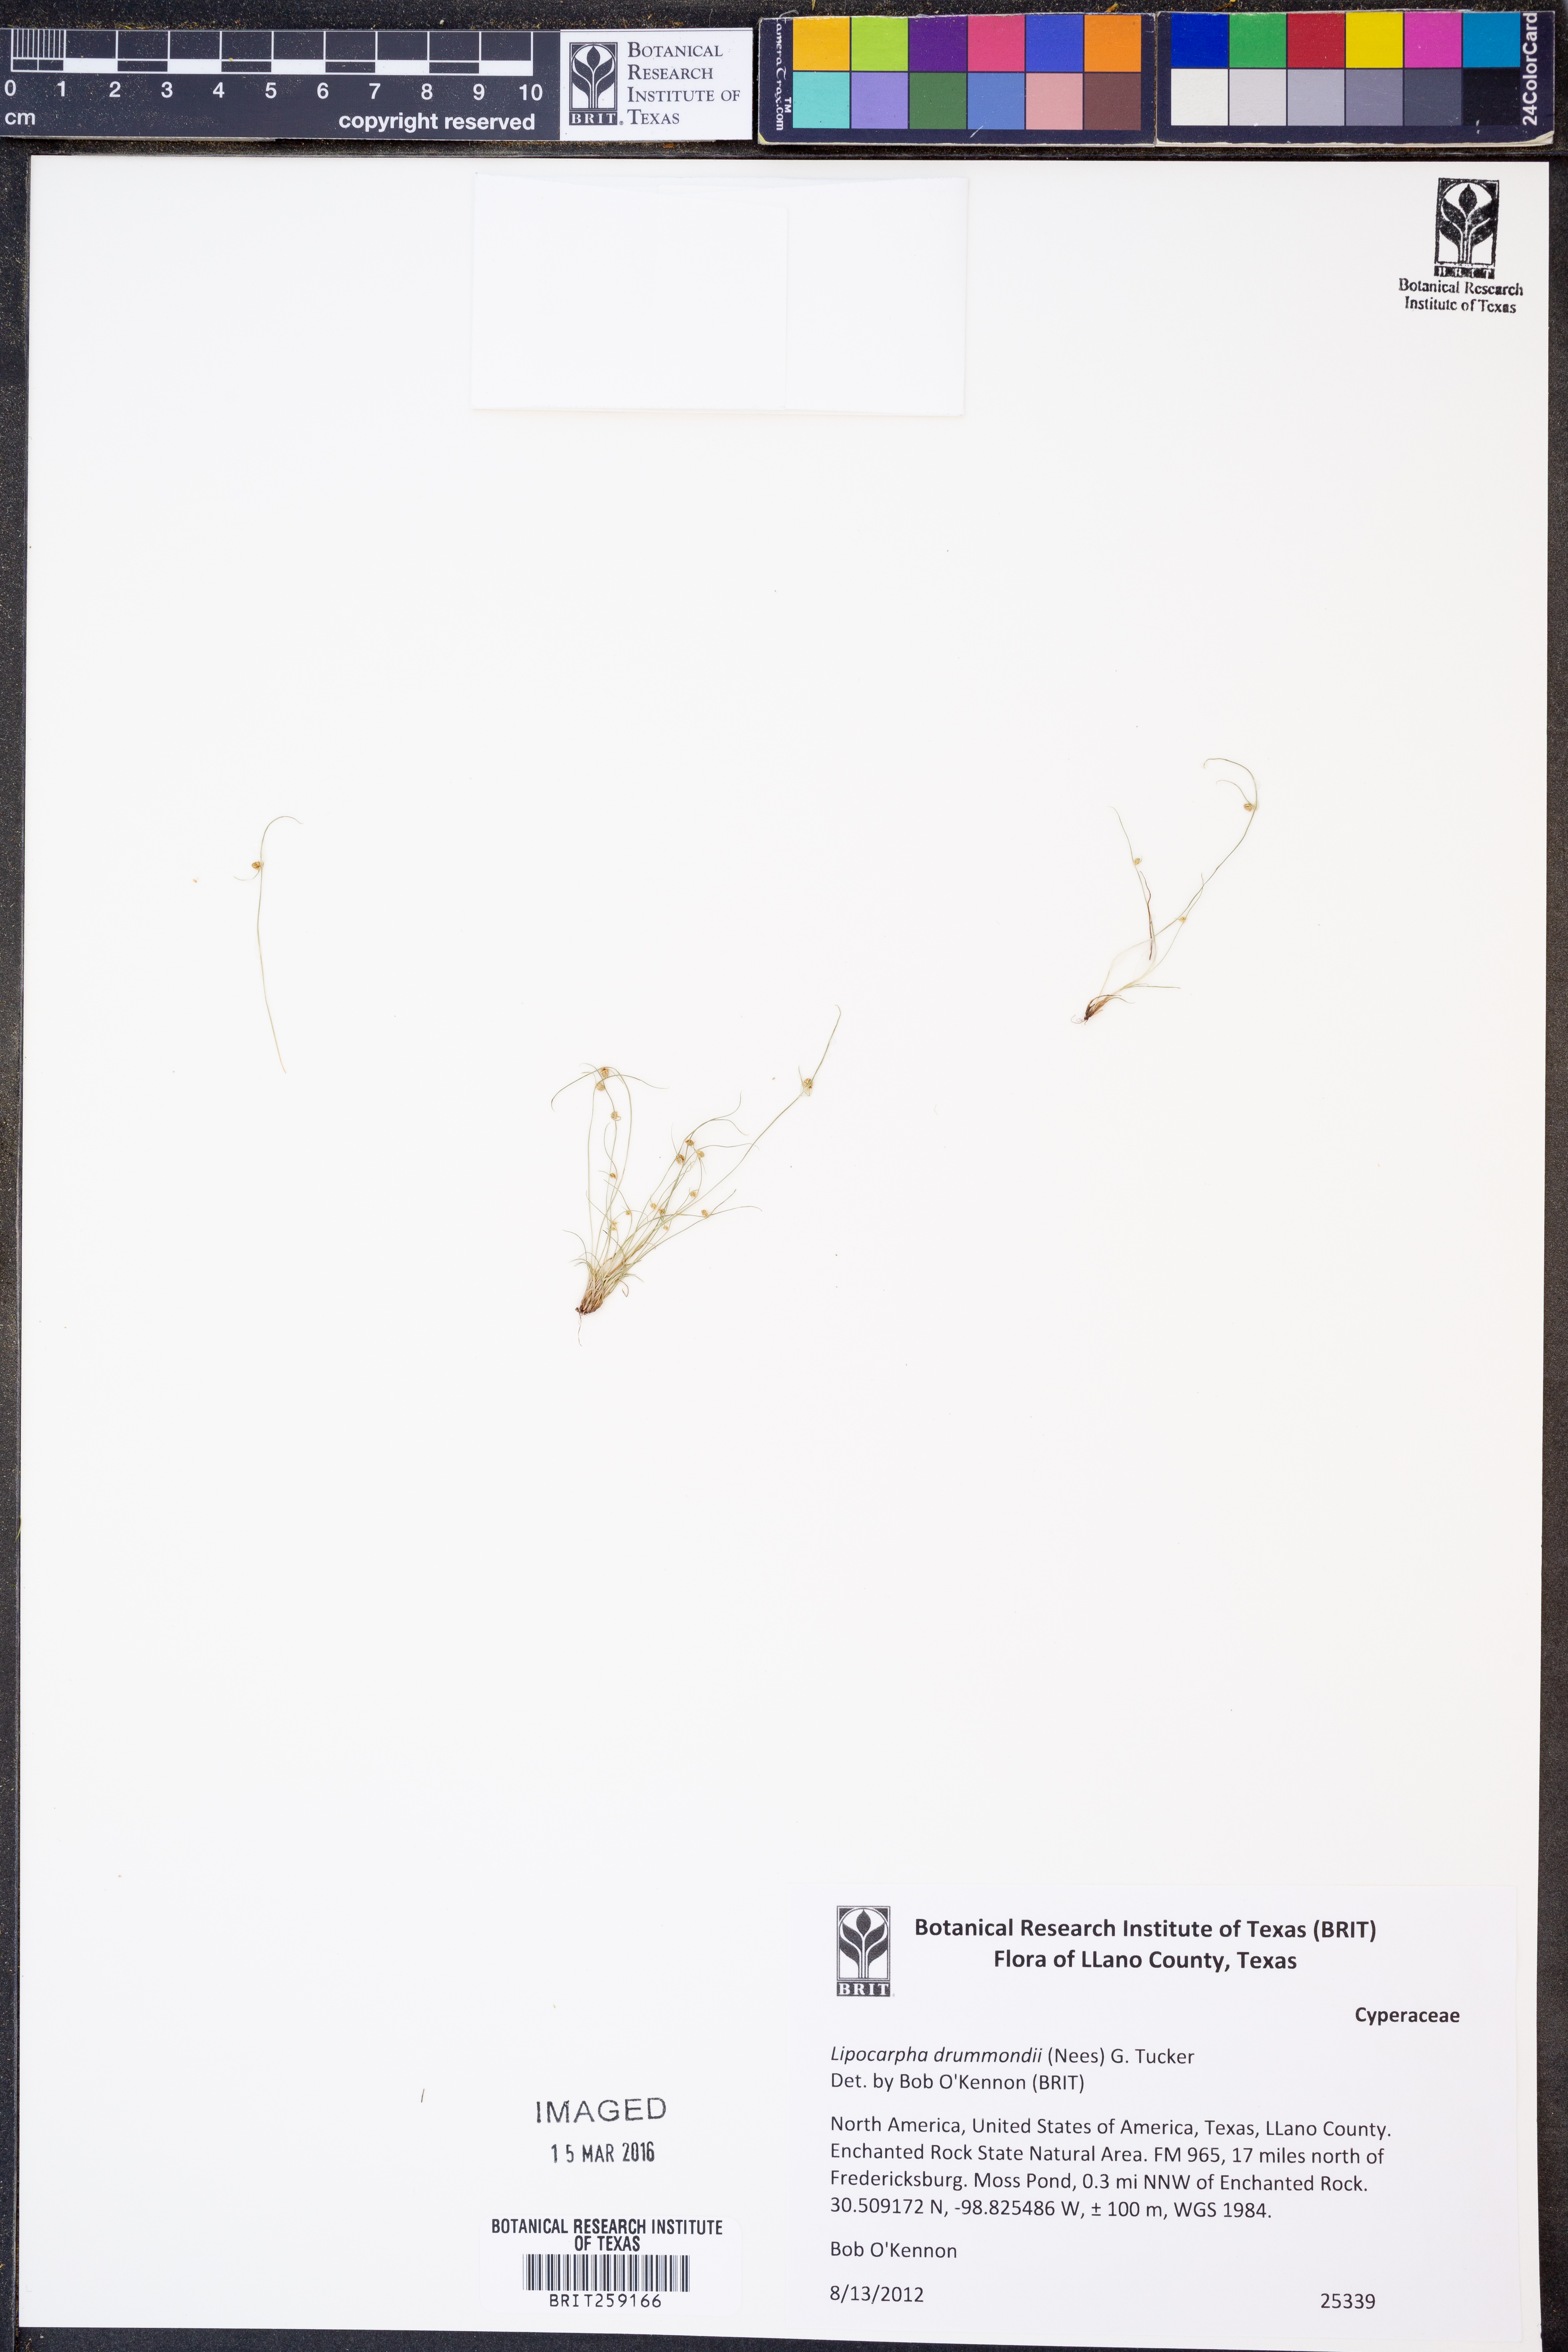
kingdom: Plantae
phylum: Tracheophyta
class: Liliopsida
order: Poales
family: Cyperaceae
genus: Cyperus
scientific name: Cyperus hemidrummondii
